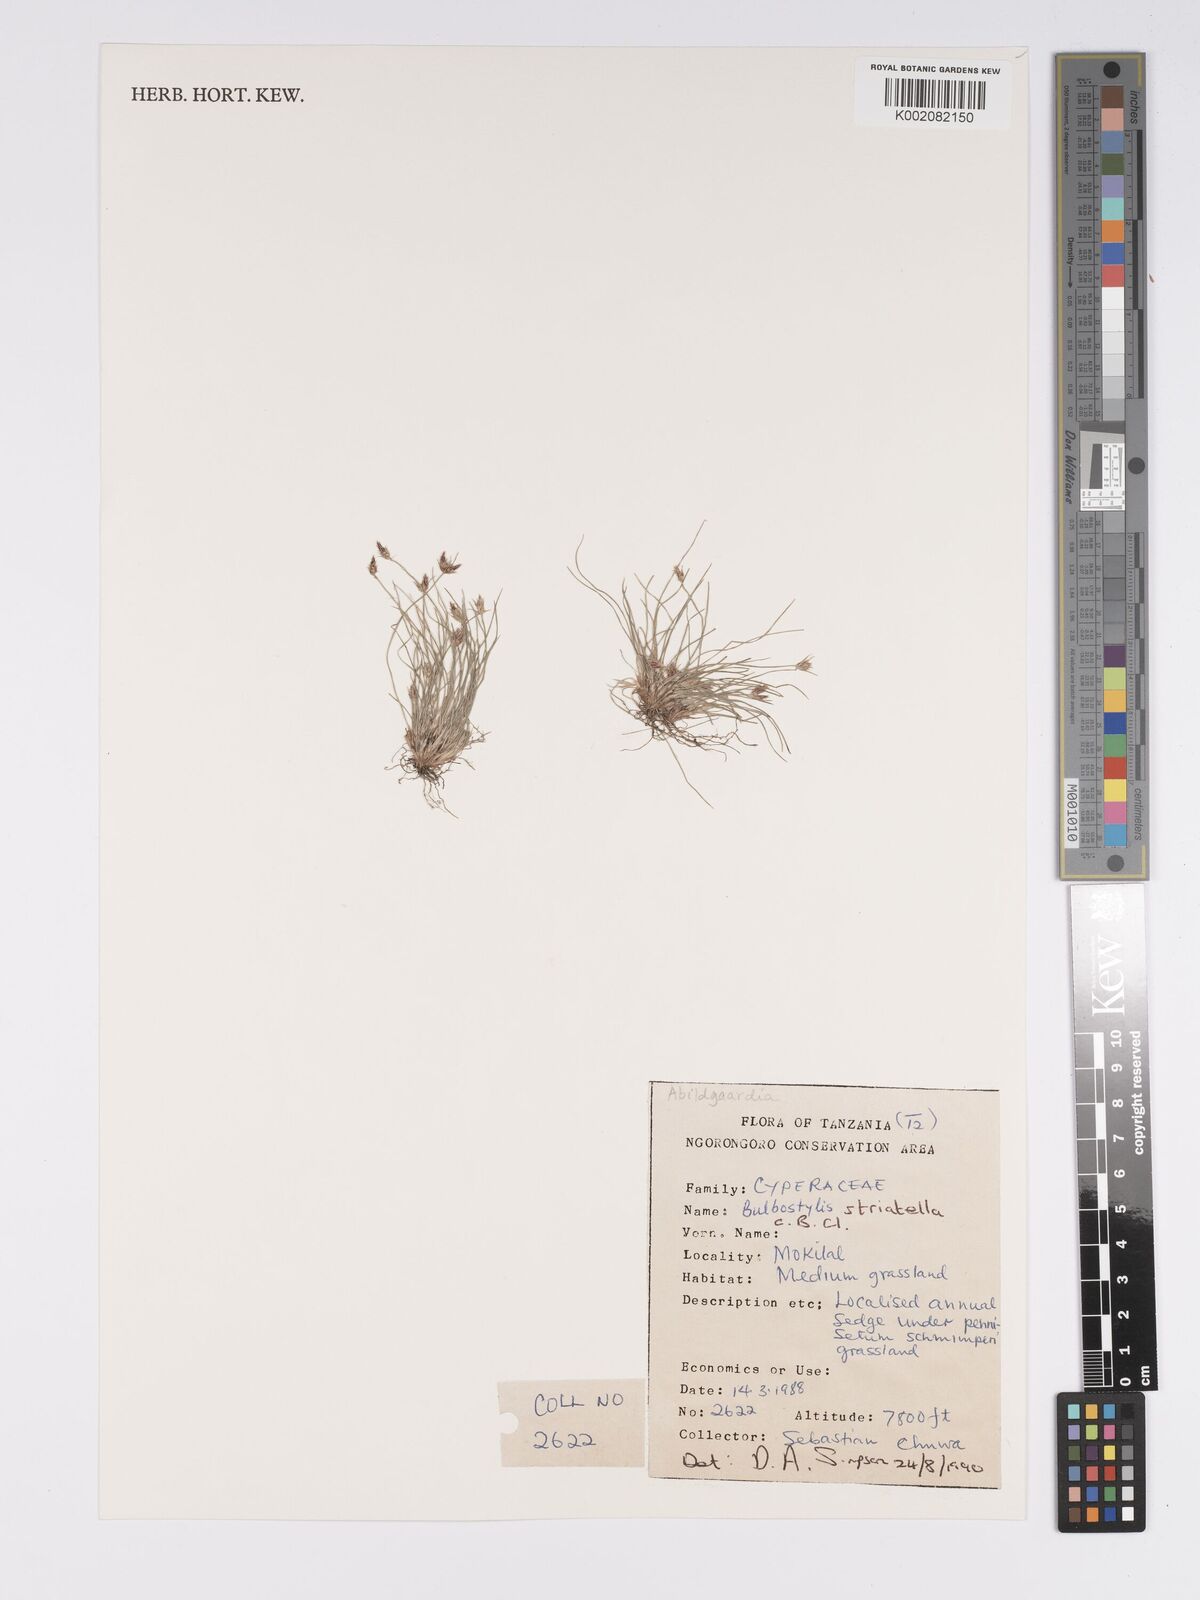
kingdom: Plantae
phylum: Tracheophyta
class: Liliopsida
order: Poales
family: Cyperaceae
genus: Bulbostylis
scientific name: Bulbostylis humilis
